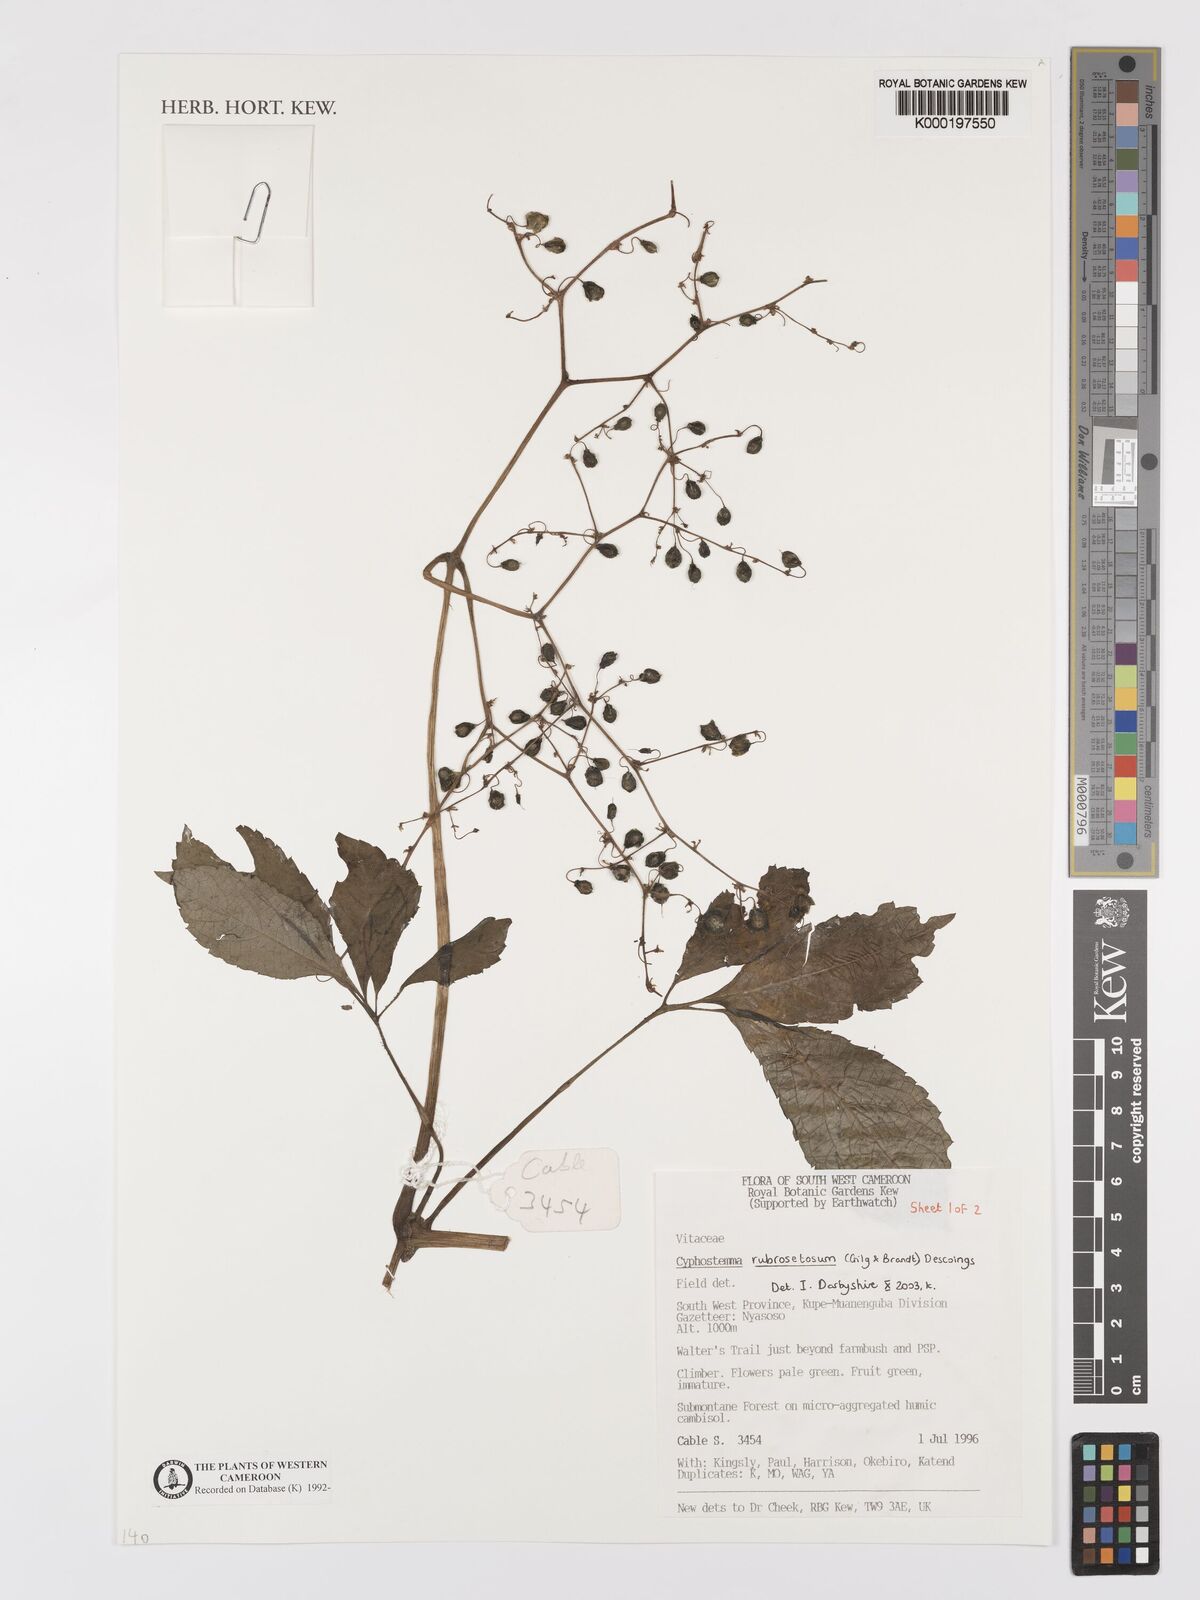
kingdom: Plantae
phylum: Tracheophyta
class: Magnoliopsida
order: Vitales
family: Vitaceae
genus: Cyphostemma
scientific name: Cyphostemma rubrosetosum
